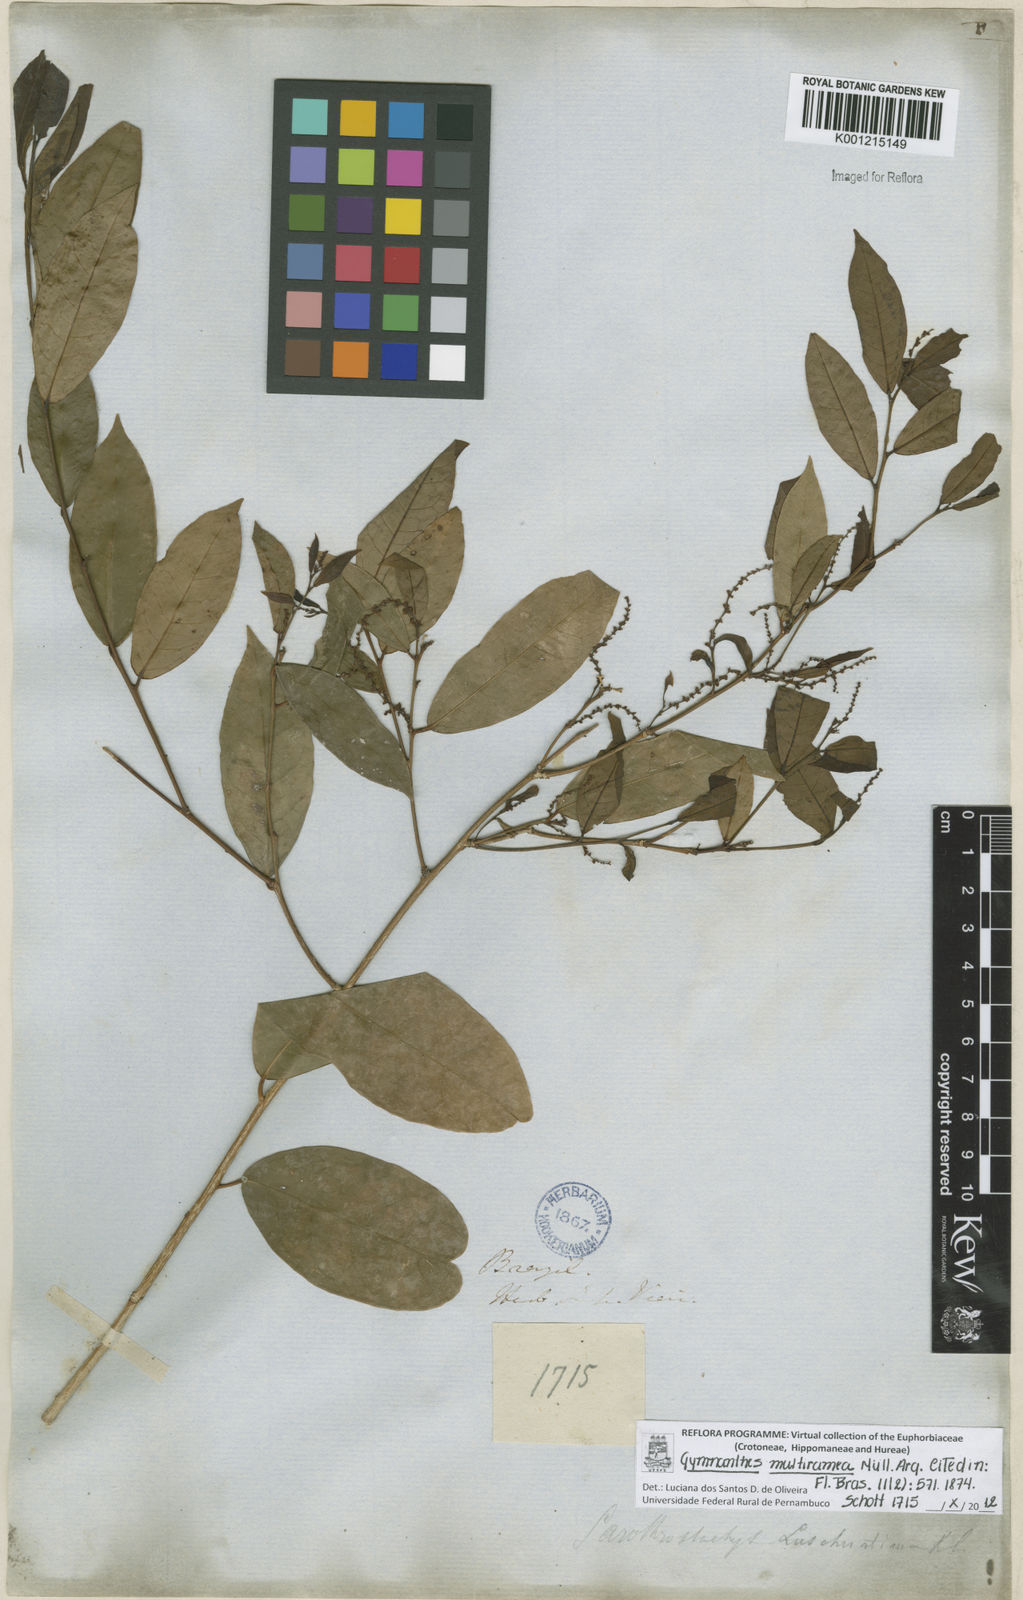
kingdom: Plantae
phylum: Tracheophyta
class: Magnoliopsida
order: Malpighiales
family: Euphorbiaceae
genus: Gymnanthes
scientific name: Gymnanthes
